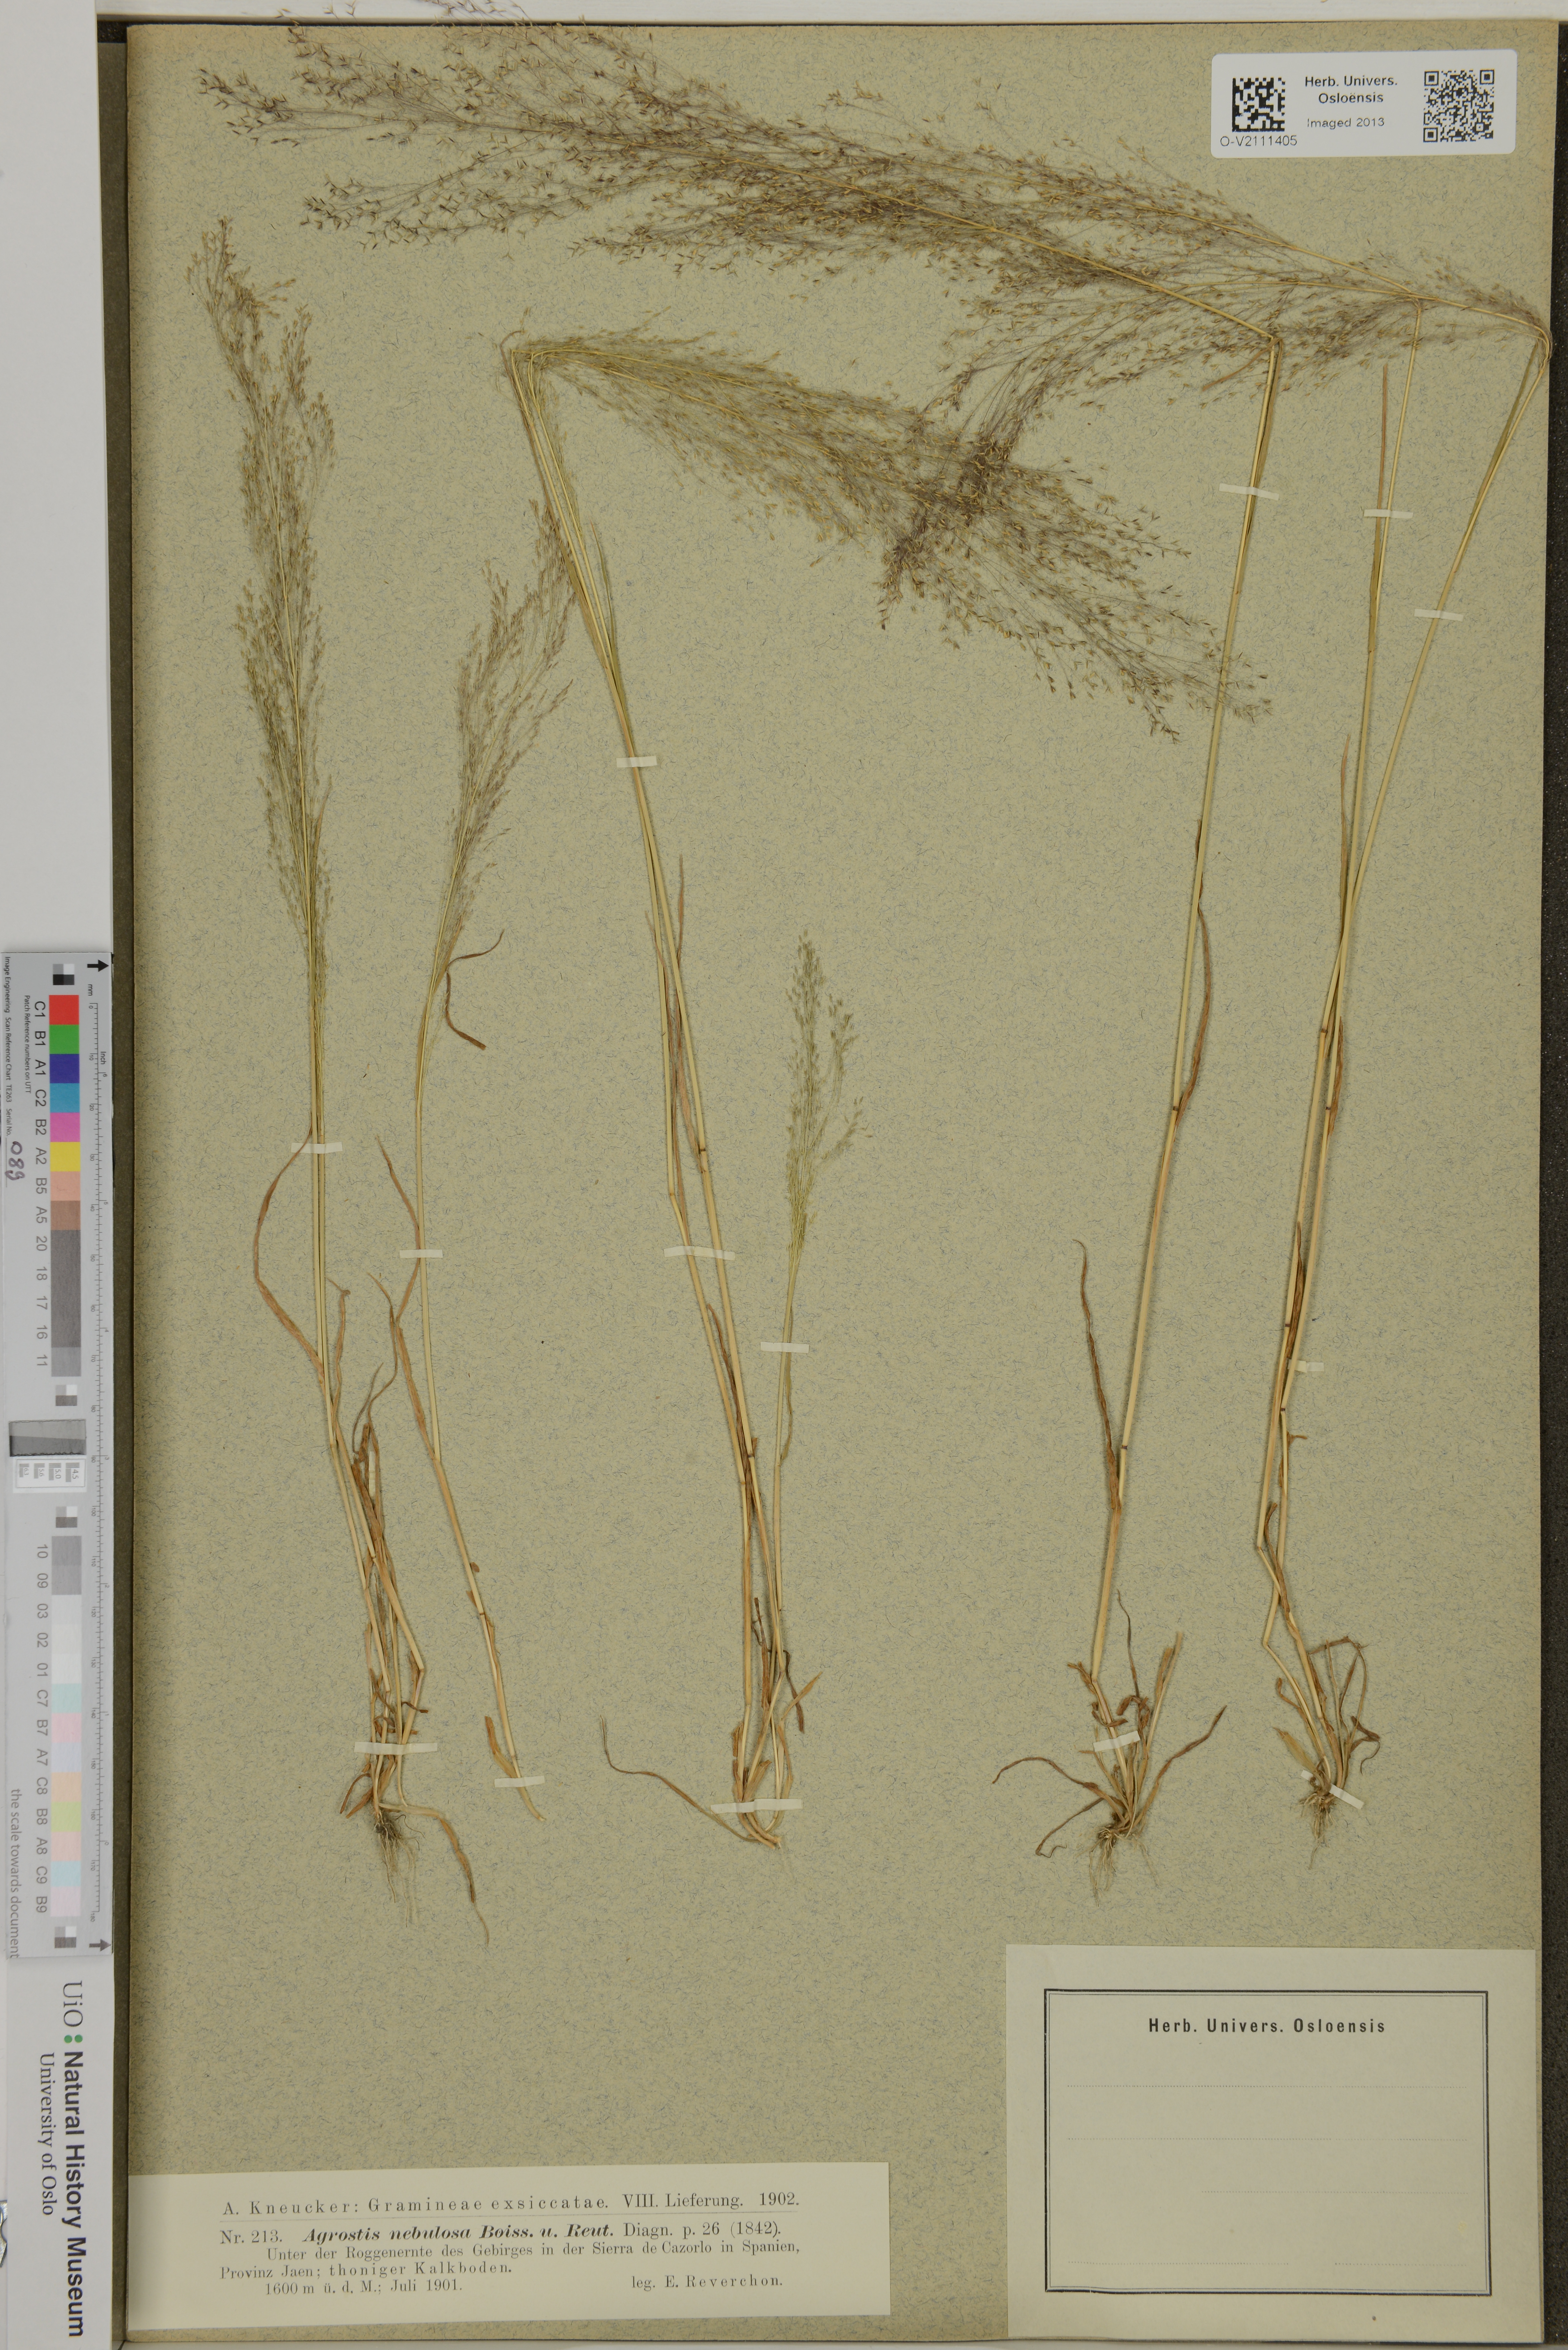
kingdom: Plantae
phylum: Tracheophyta
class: Liliopsida
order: Poales
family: Poaceae
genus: Agrostis
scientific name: Agrostis nebulosa
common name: Cloud grass
